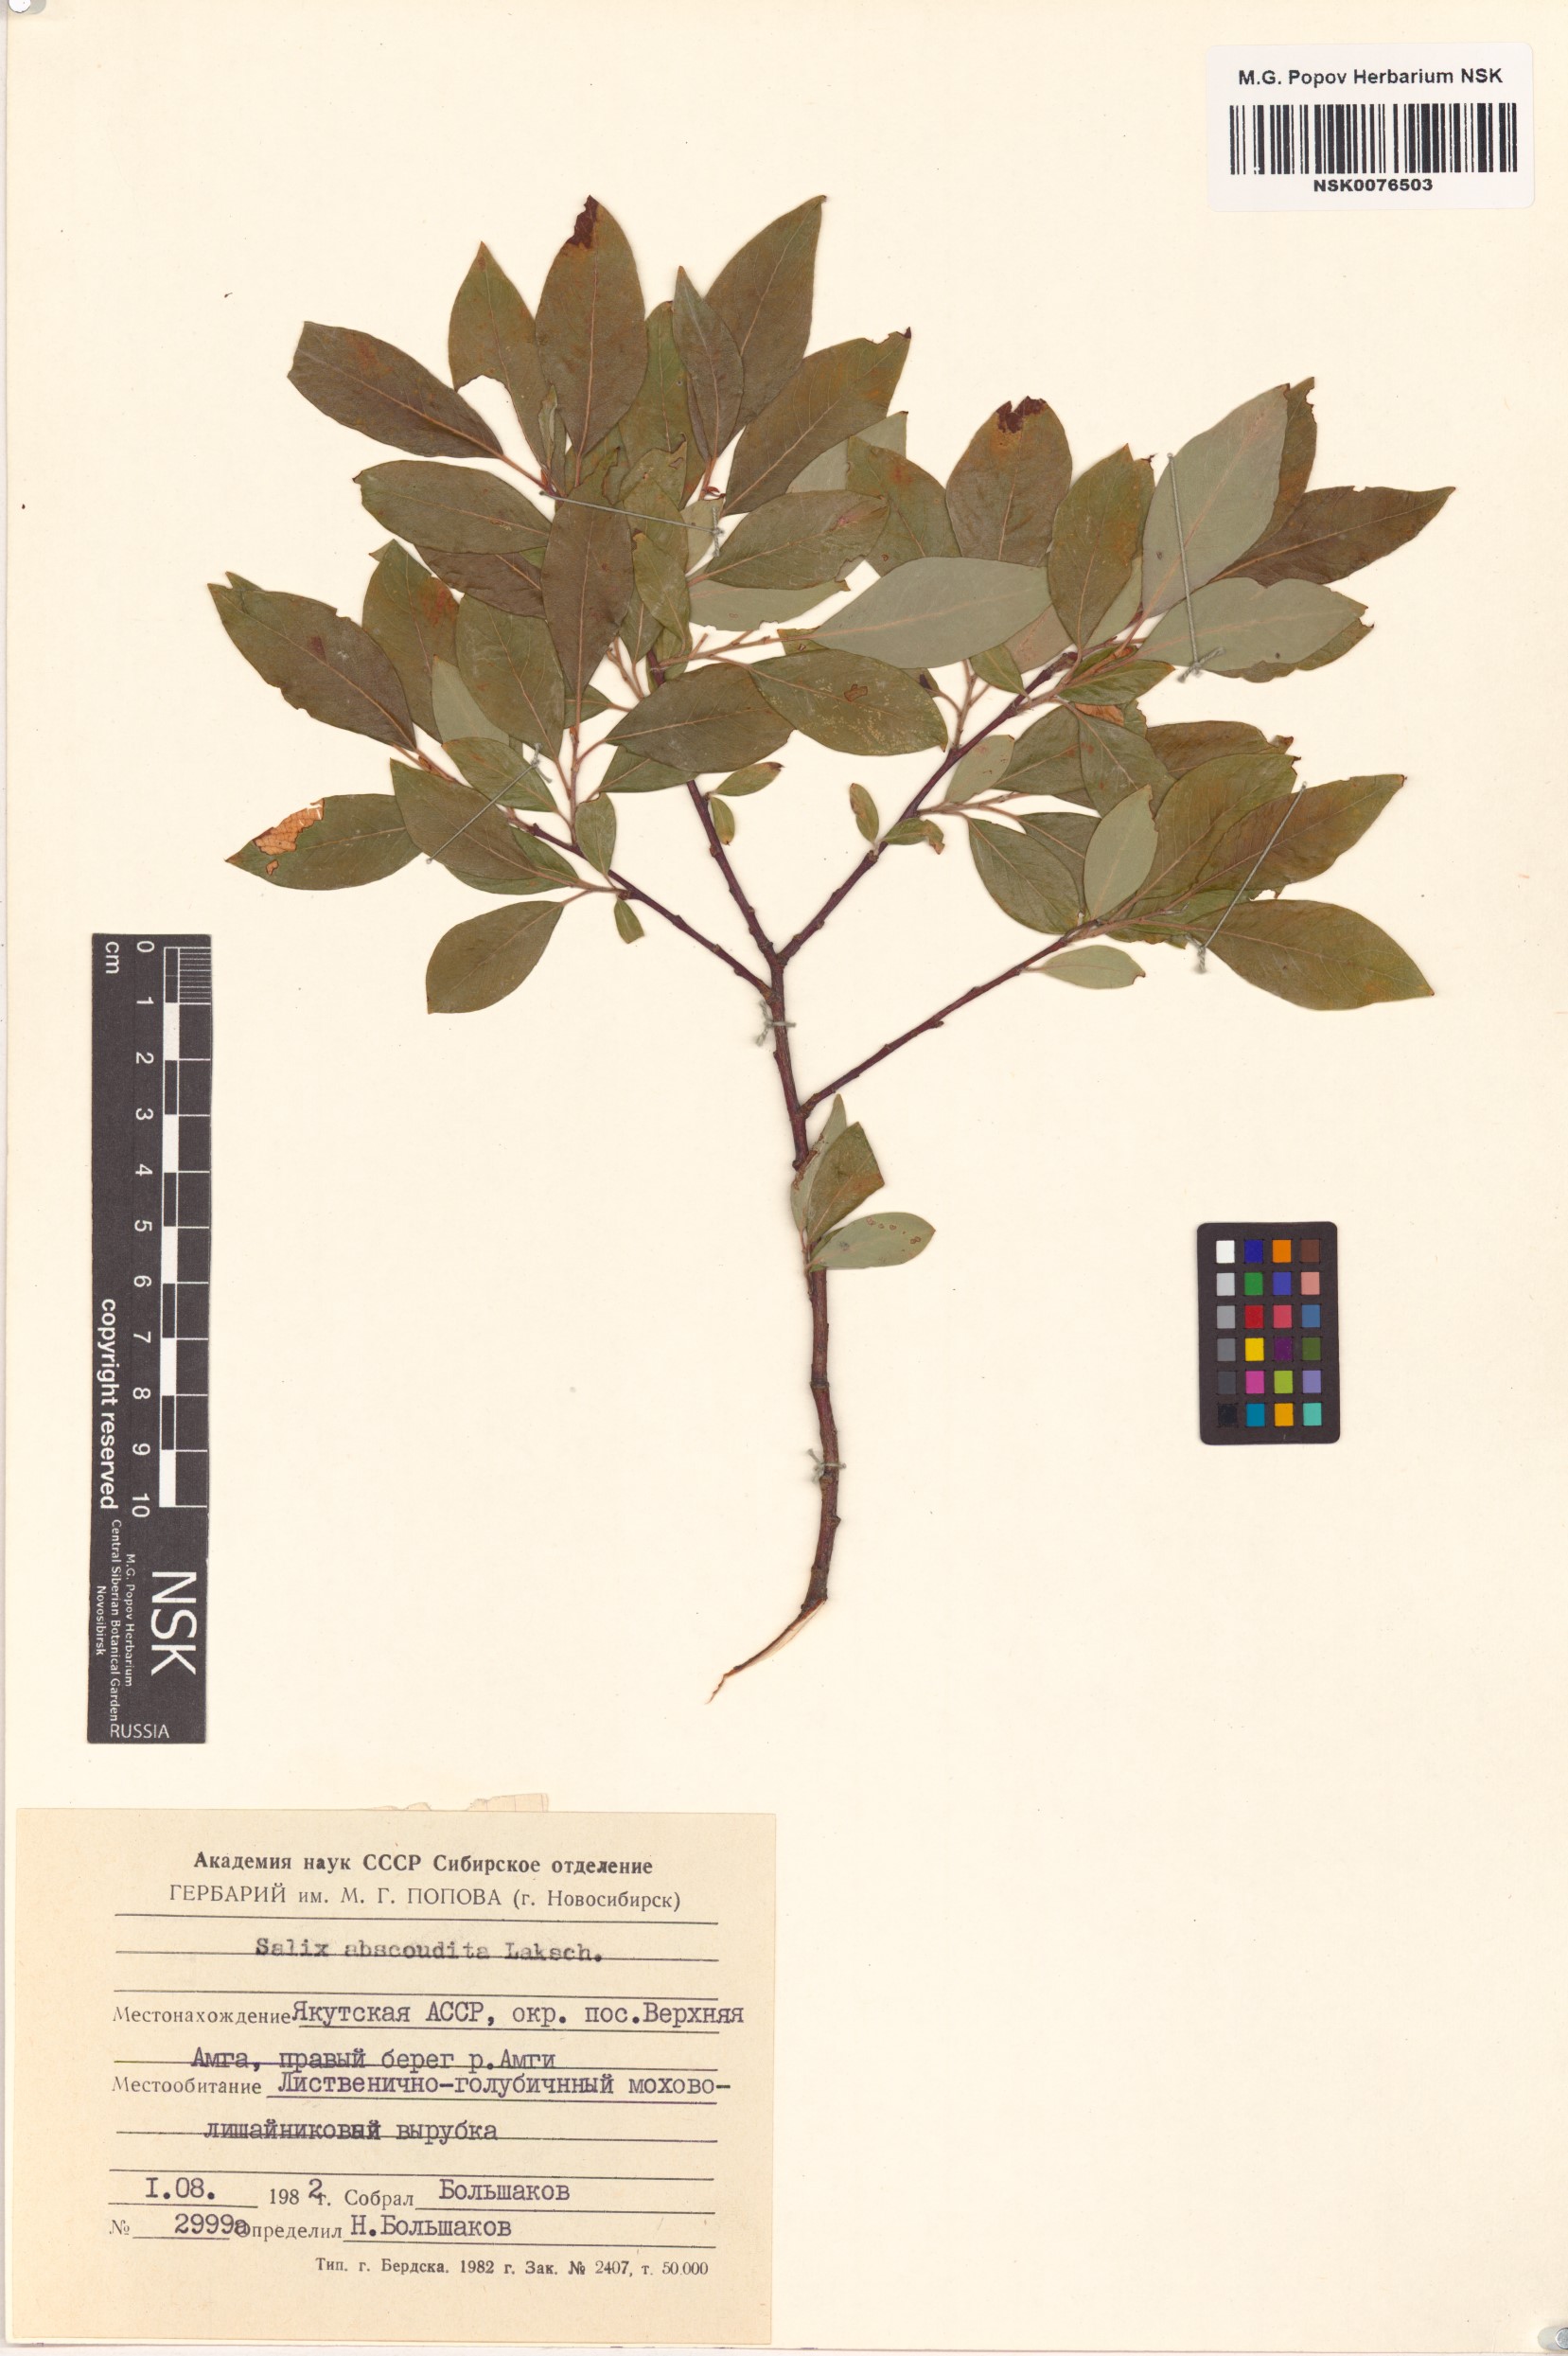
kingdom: Plantae
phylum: Tracheophyta
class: Magnoliopsida
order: Malpighiales
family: Salicaceae
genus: Salix
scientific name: Salix abscondita
